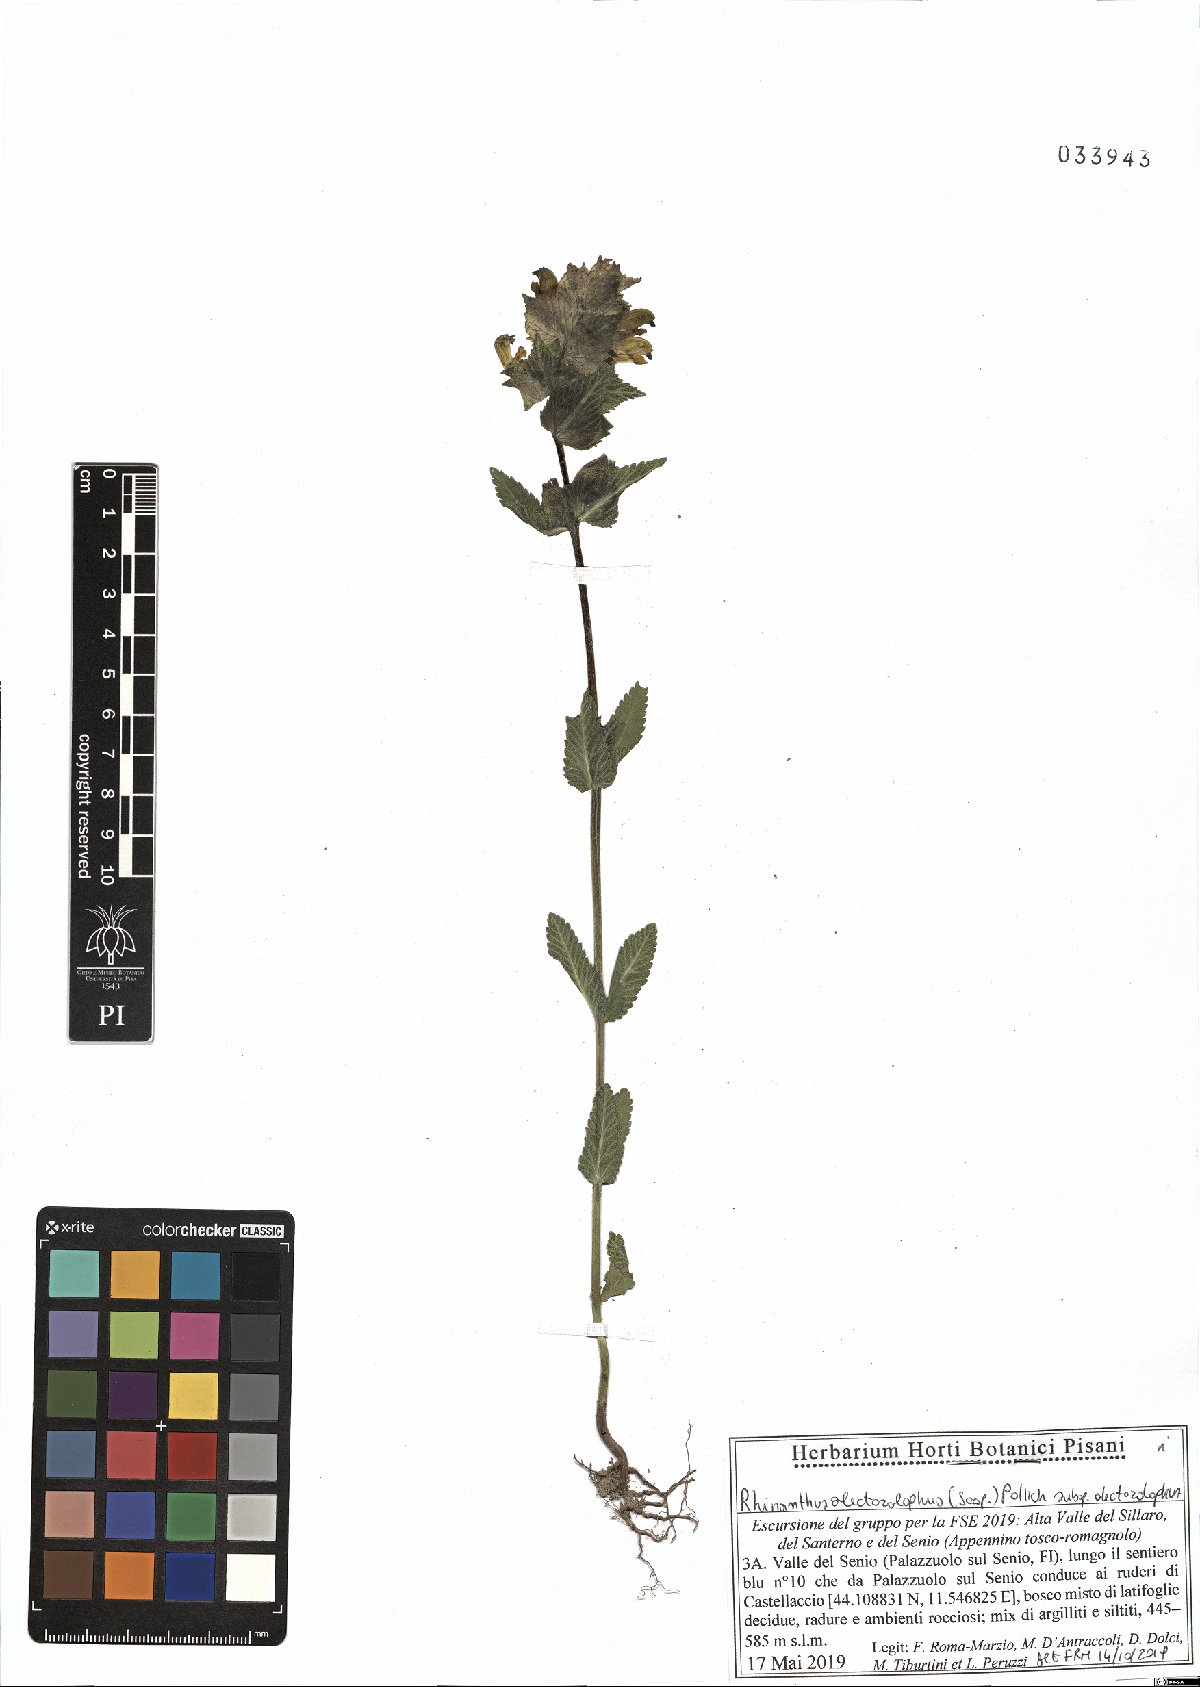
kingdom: Plantae
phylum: Tracheophyta
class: Magnoliopsida
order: Lamiales
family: Orobanchaceae
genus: Rhinanthus
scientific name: Rhinanthus alectorolophus
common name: Greater yellow-rattle
